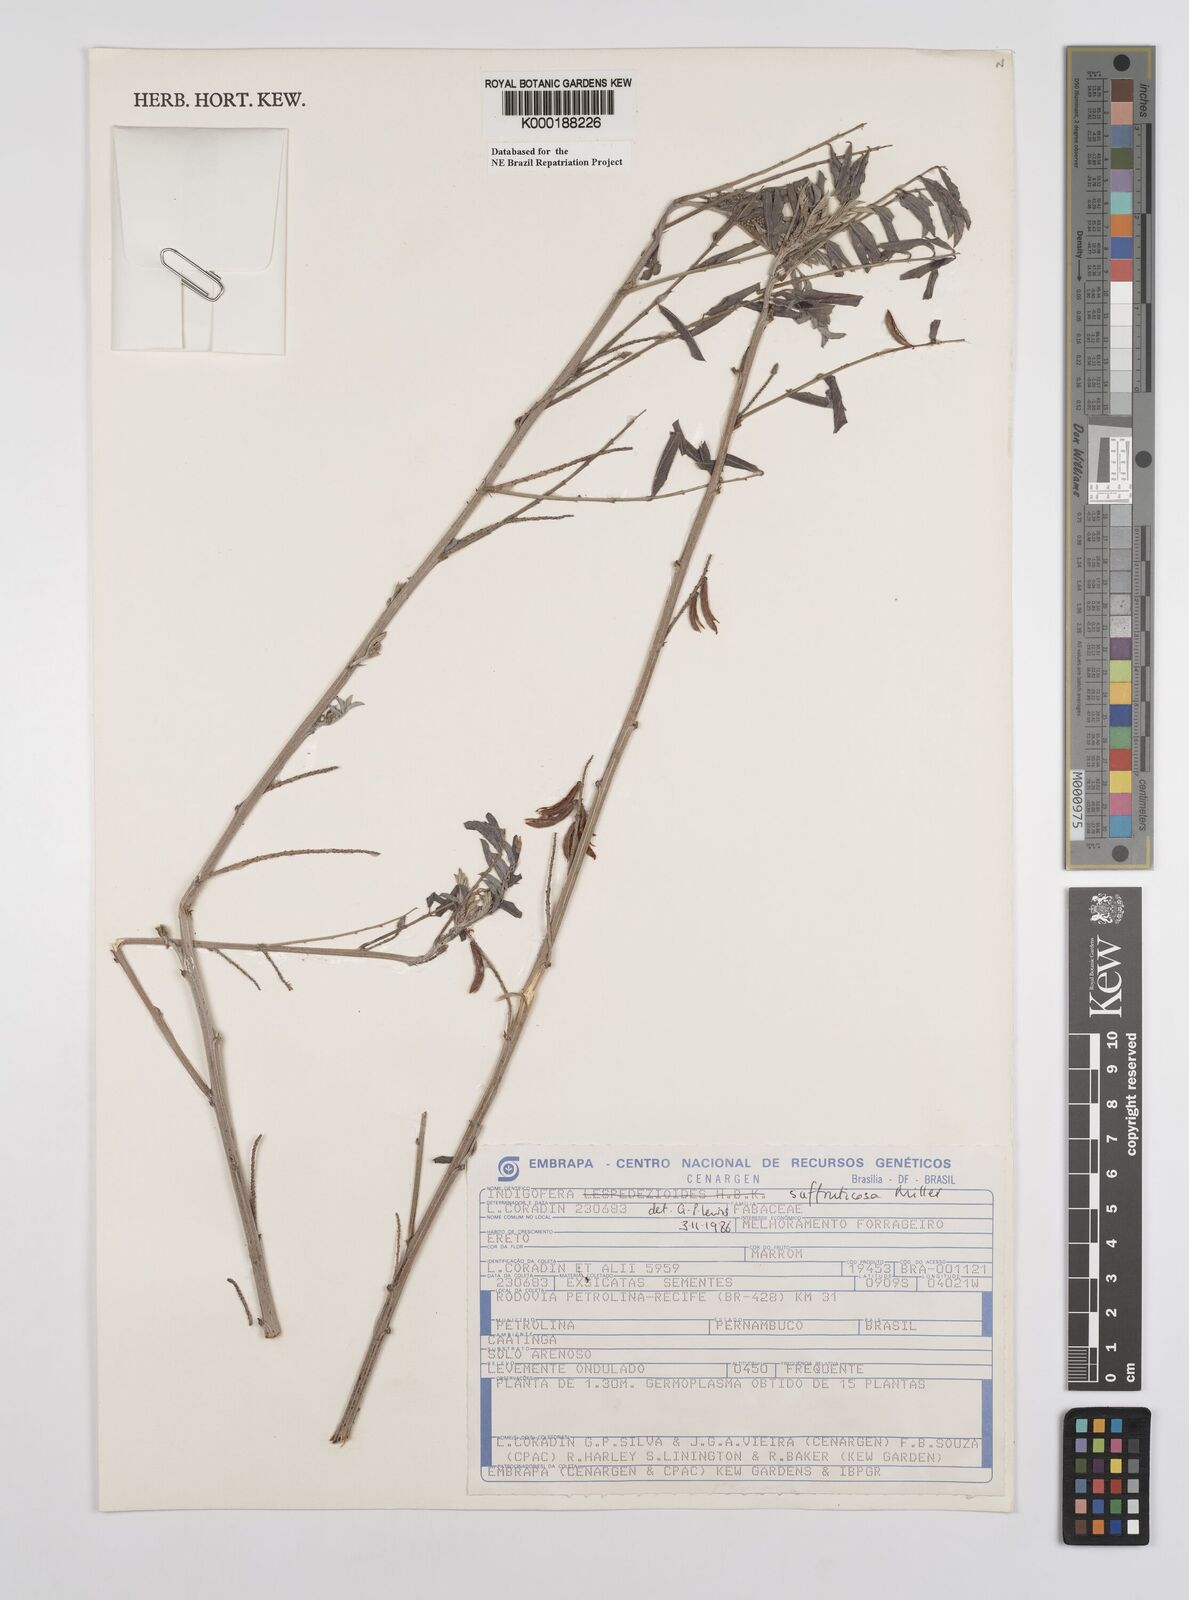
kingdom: Plantae
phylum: Tracheophyta
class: Magnoliopsida
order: Fabales
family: Fabaceae
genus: Indigofera
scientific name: Indigofera suffruticosa
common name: Anil de pasto
